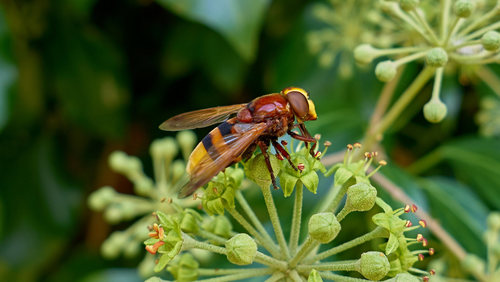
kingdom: Animalia
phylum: Arthropoda
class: Insecta
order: Diptera
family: Syrphidae
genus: Volucella
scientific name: Volucella zonaria
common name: Hornet hoverfly
